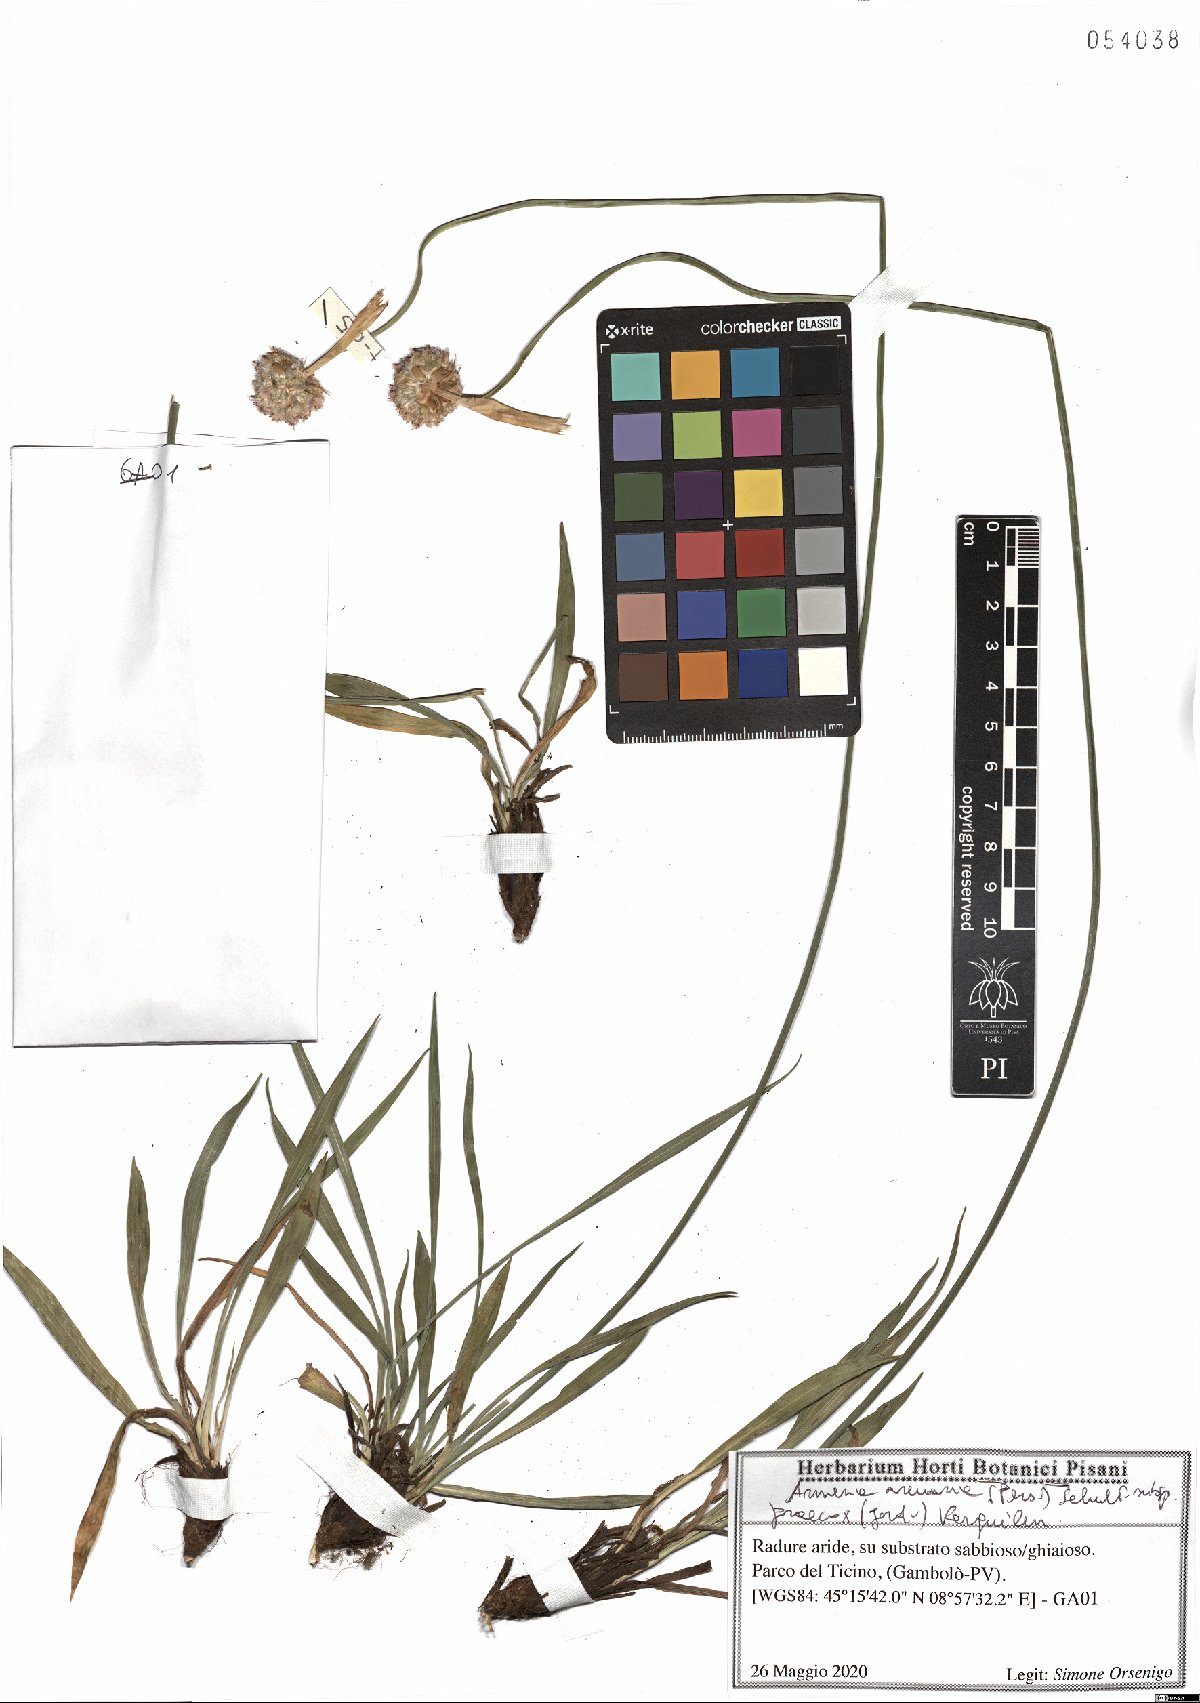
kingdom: Plantae
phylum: Tracheophyta
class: Magnoliopsida
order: Caryophyllales
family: Plumbaginaceae
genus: Armeria
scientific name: Armeria arenaria
